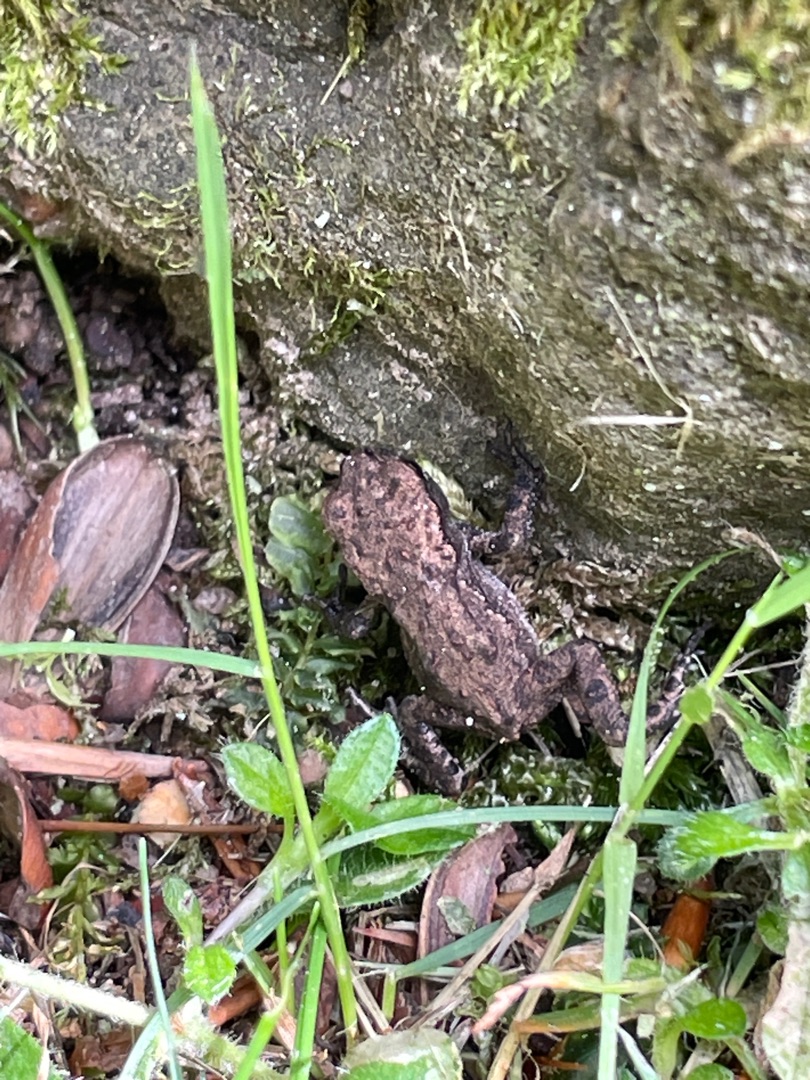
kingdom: Animalia
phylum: Chordata
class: Amphibia
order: Anura
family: Bufonidae
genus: Bufo
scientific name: Bufo bufo
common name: Skrubtudse
